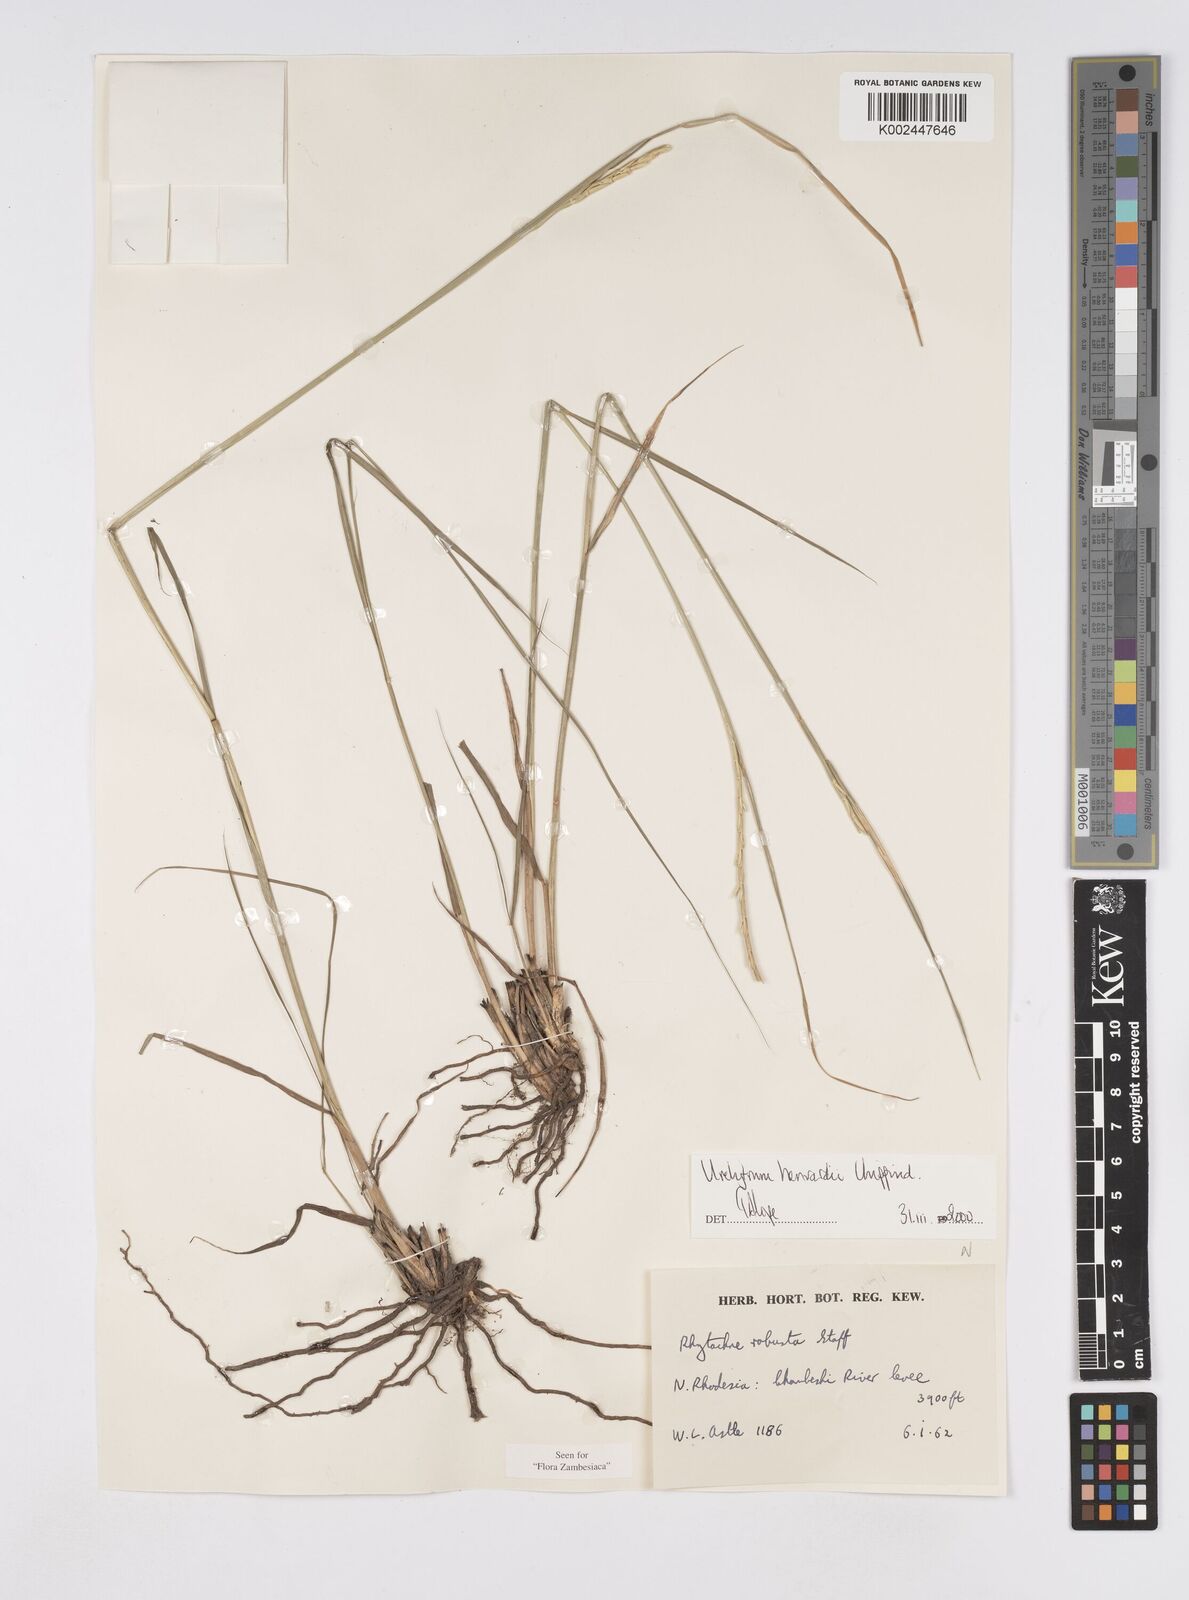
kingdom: Plantae
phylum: Tracheophyta
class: Liliopsida
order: Poales
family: Poaceae
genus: Urelytrum
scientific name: Urelytrum henrardii
